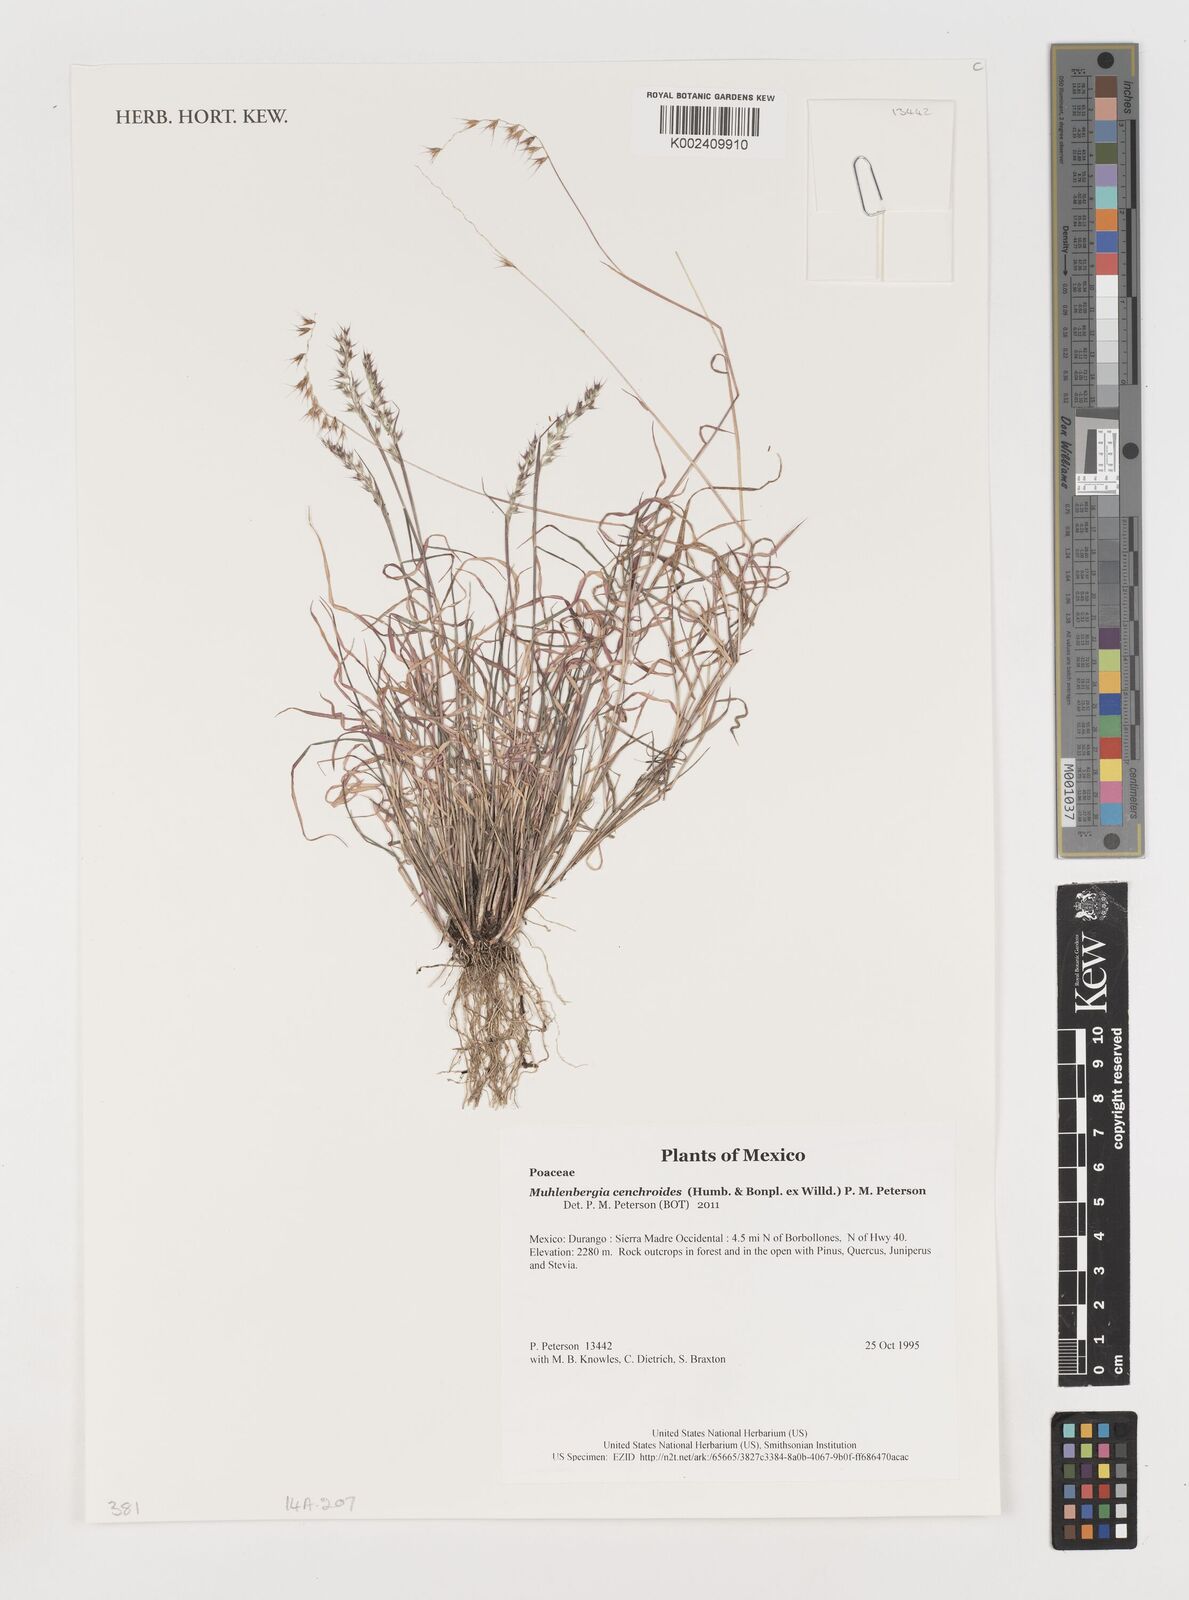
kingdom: Plantae
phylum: Tracheophyta
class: Liliopsida
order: Poales
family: Poaceae
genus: Muhlenbergia
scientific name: Muhlenbergia cenchroides
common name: Relaxgrass
